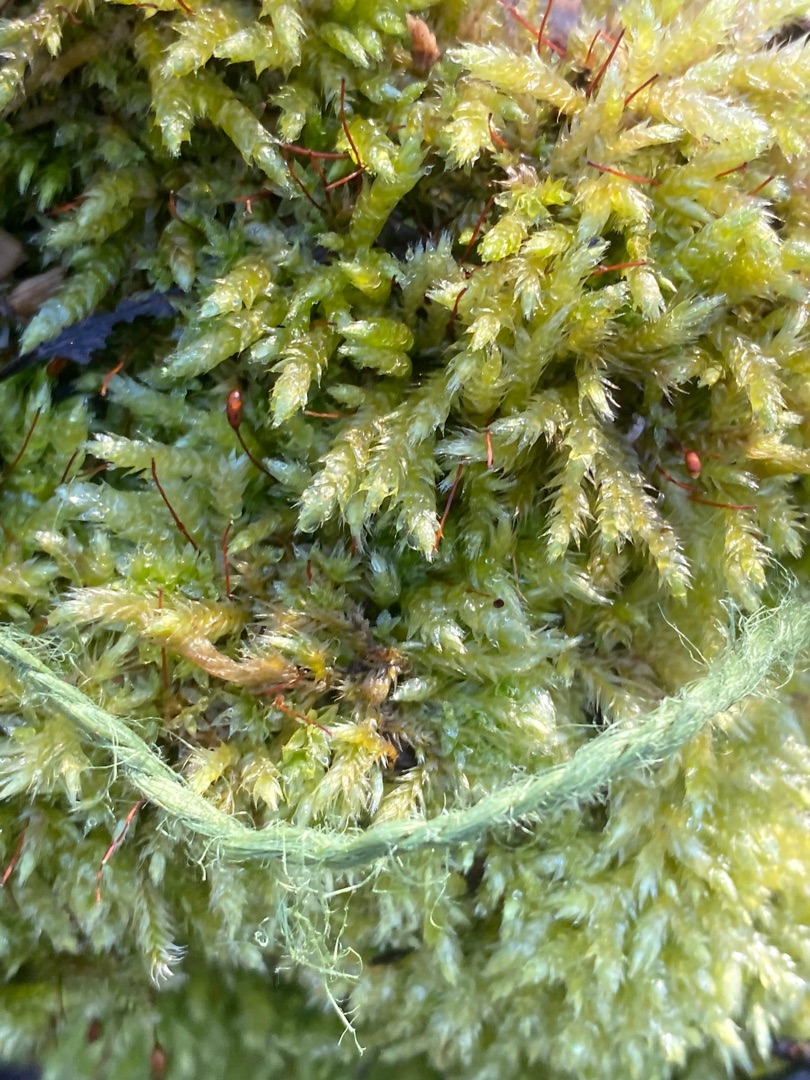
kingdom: Plantae
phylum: Bryophyta
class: Bryopsida
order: Hypnales
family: Brachytheciaceae
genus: Brachythecium
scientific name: Brachythecium rutabulum
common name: Almindelig kortkapsel
